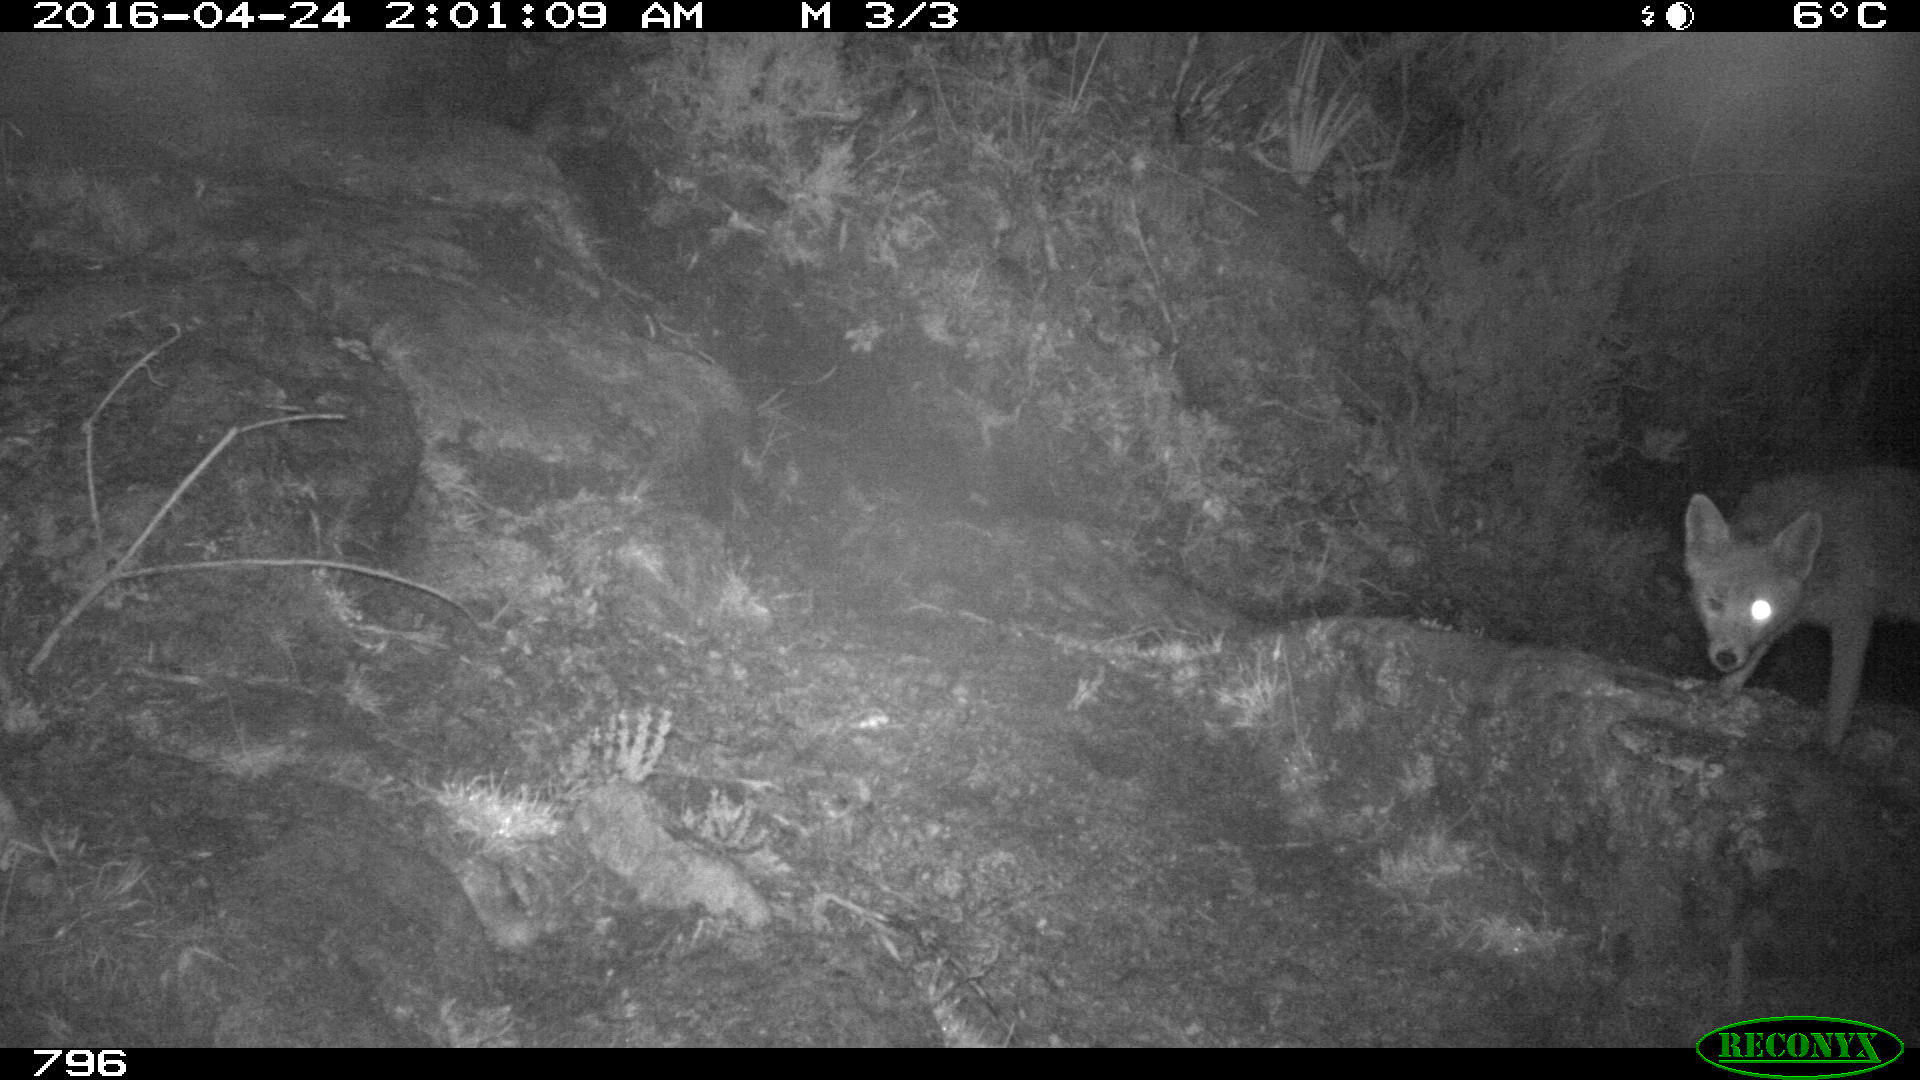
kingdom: Animalia
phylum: Chordata
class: Mammalia
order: Carnivora
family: Canidae
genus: Vulpes
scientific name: Vulpes vulpes
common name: Red fox
